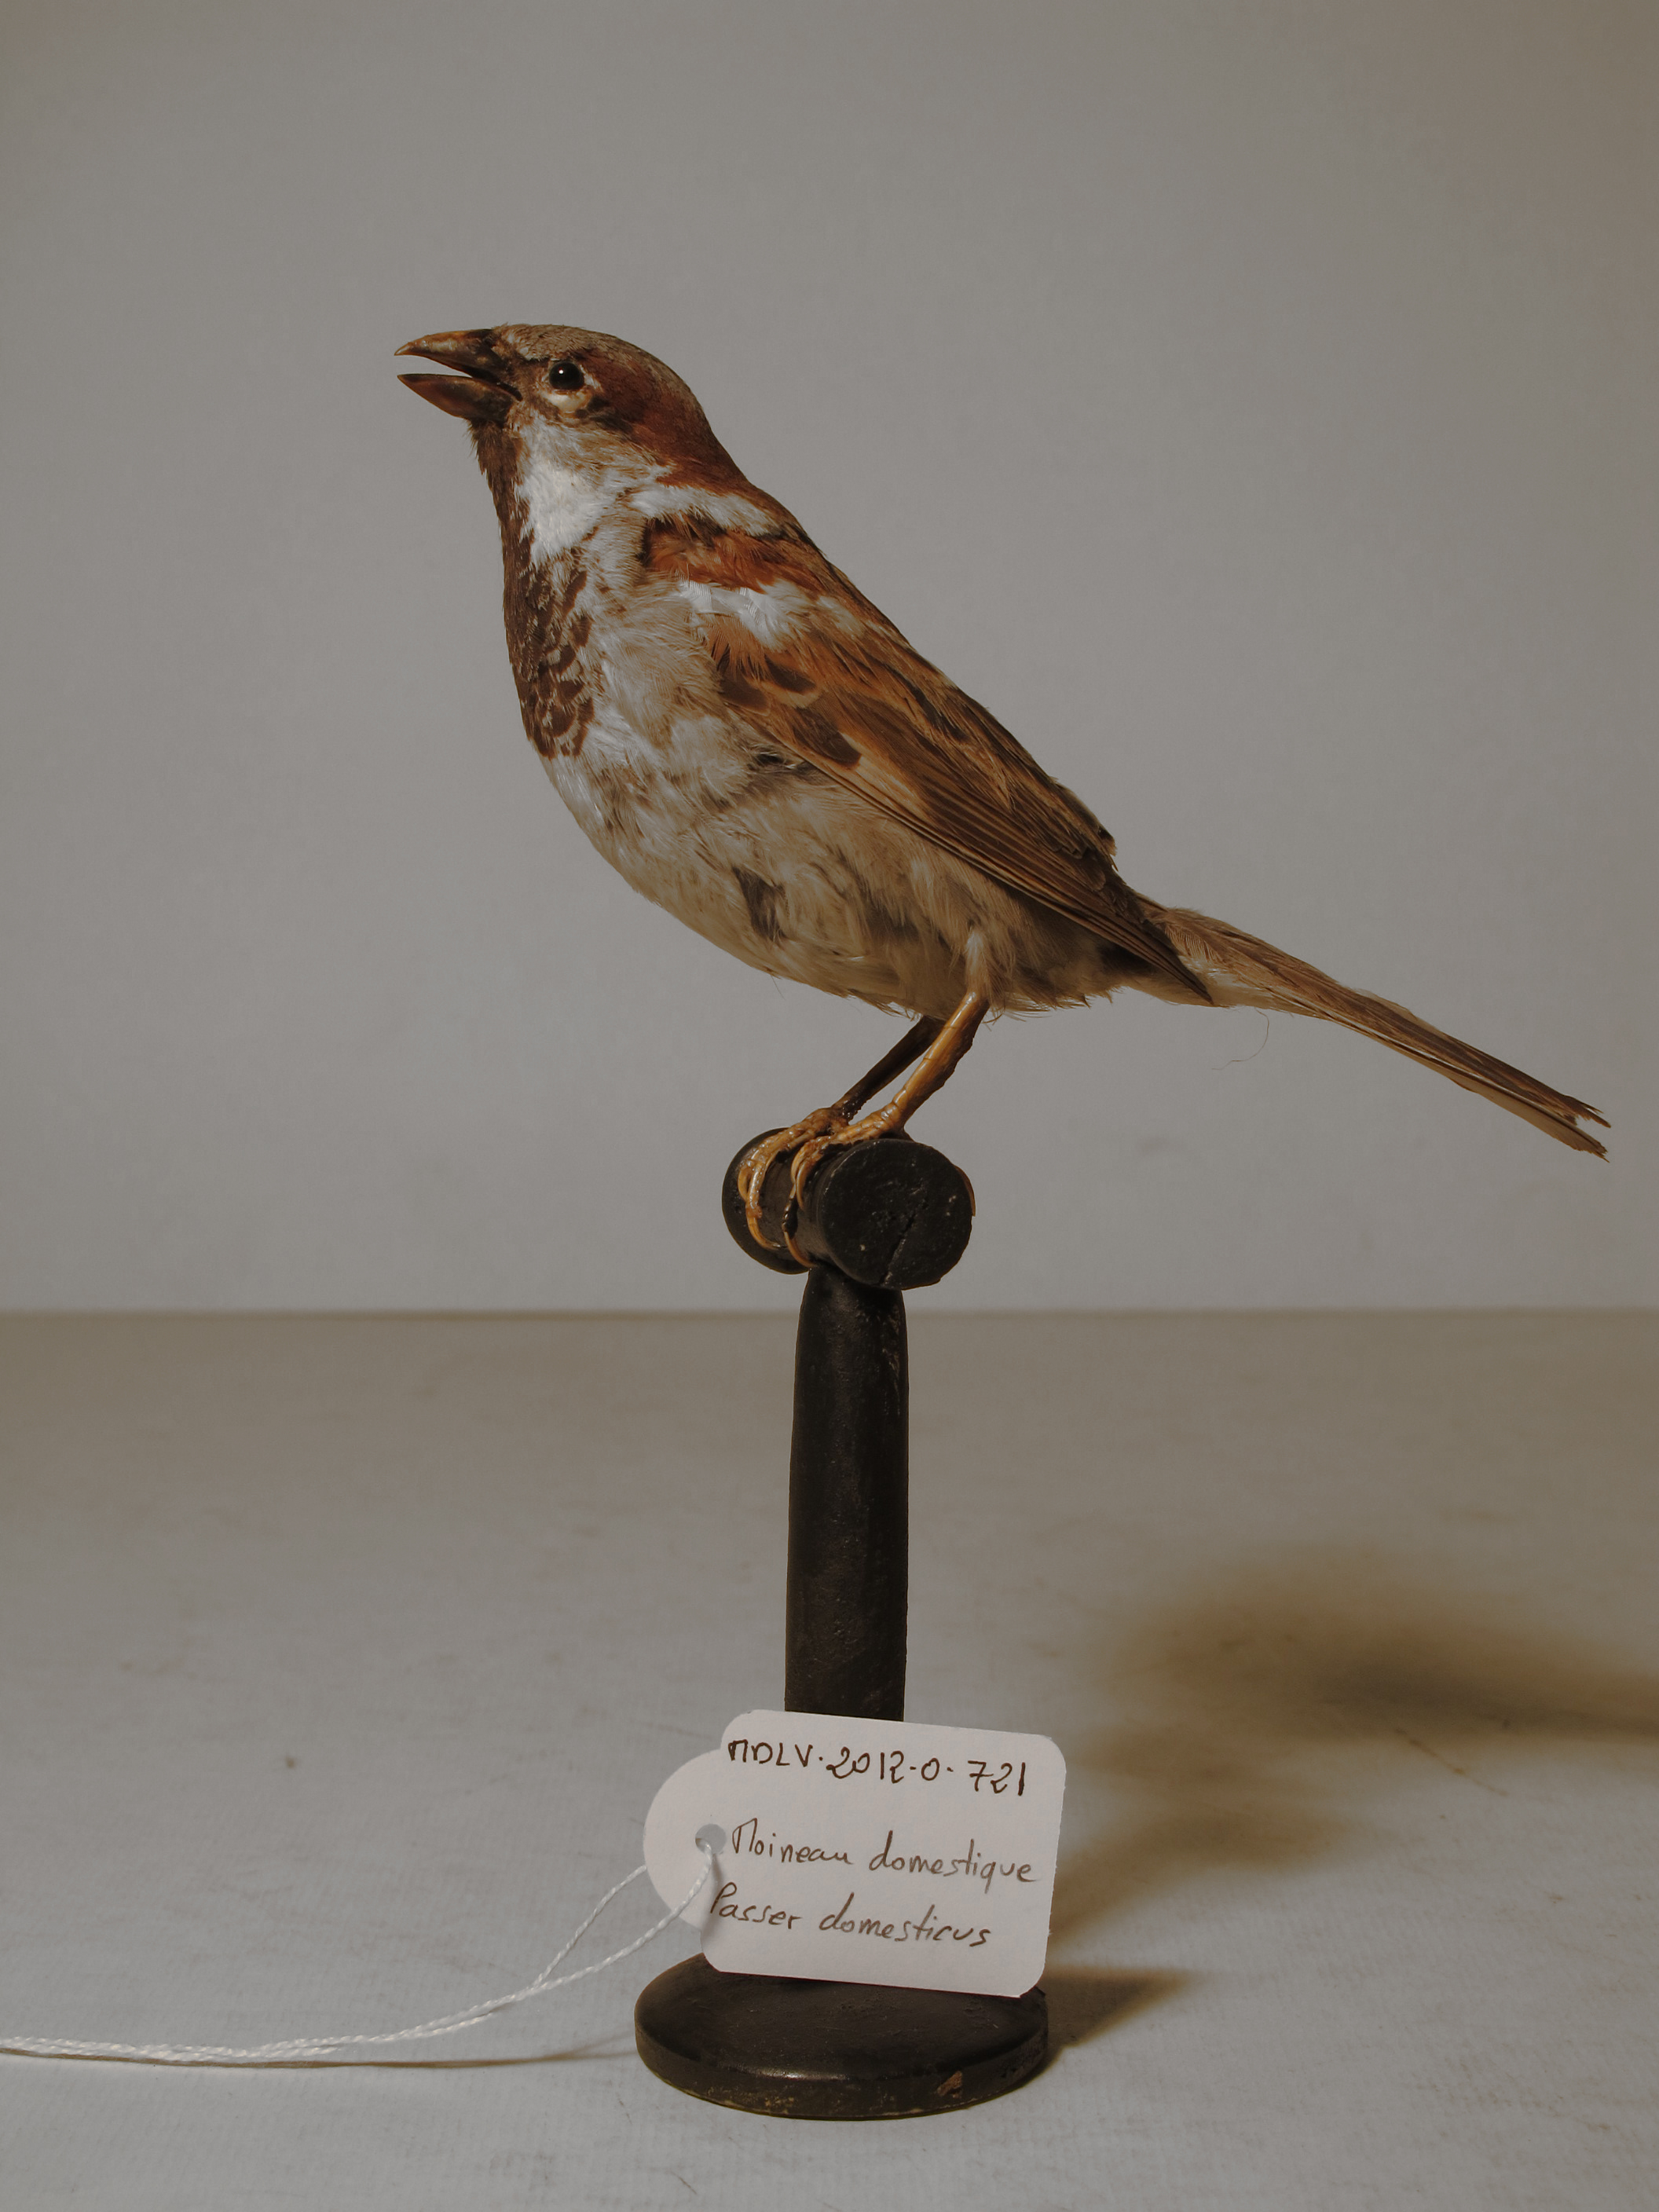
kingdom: Animalia
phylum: Chordata
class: Aves
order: Passeriformes
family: Passeridae
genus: Passer
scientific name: Passer domesticus
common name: House Sparrow
